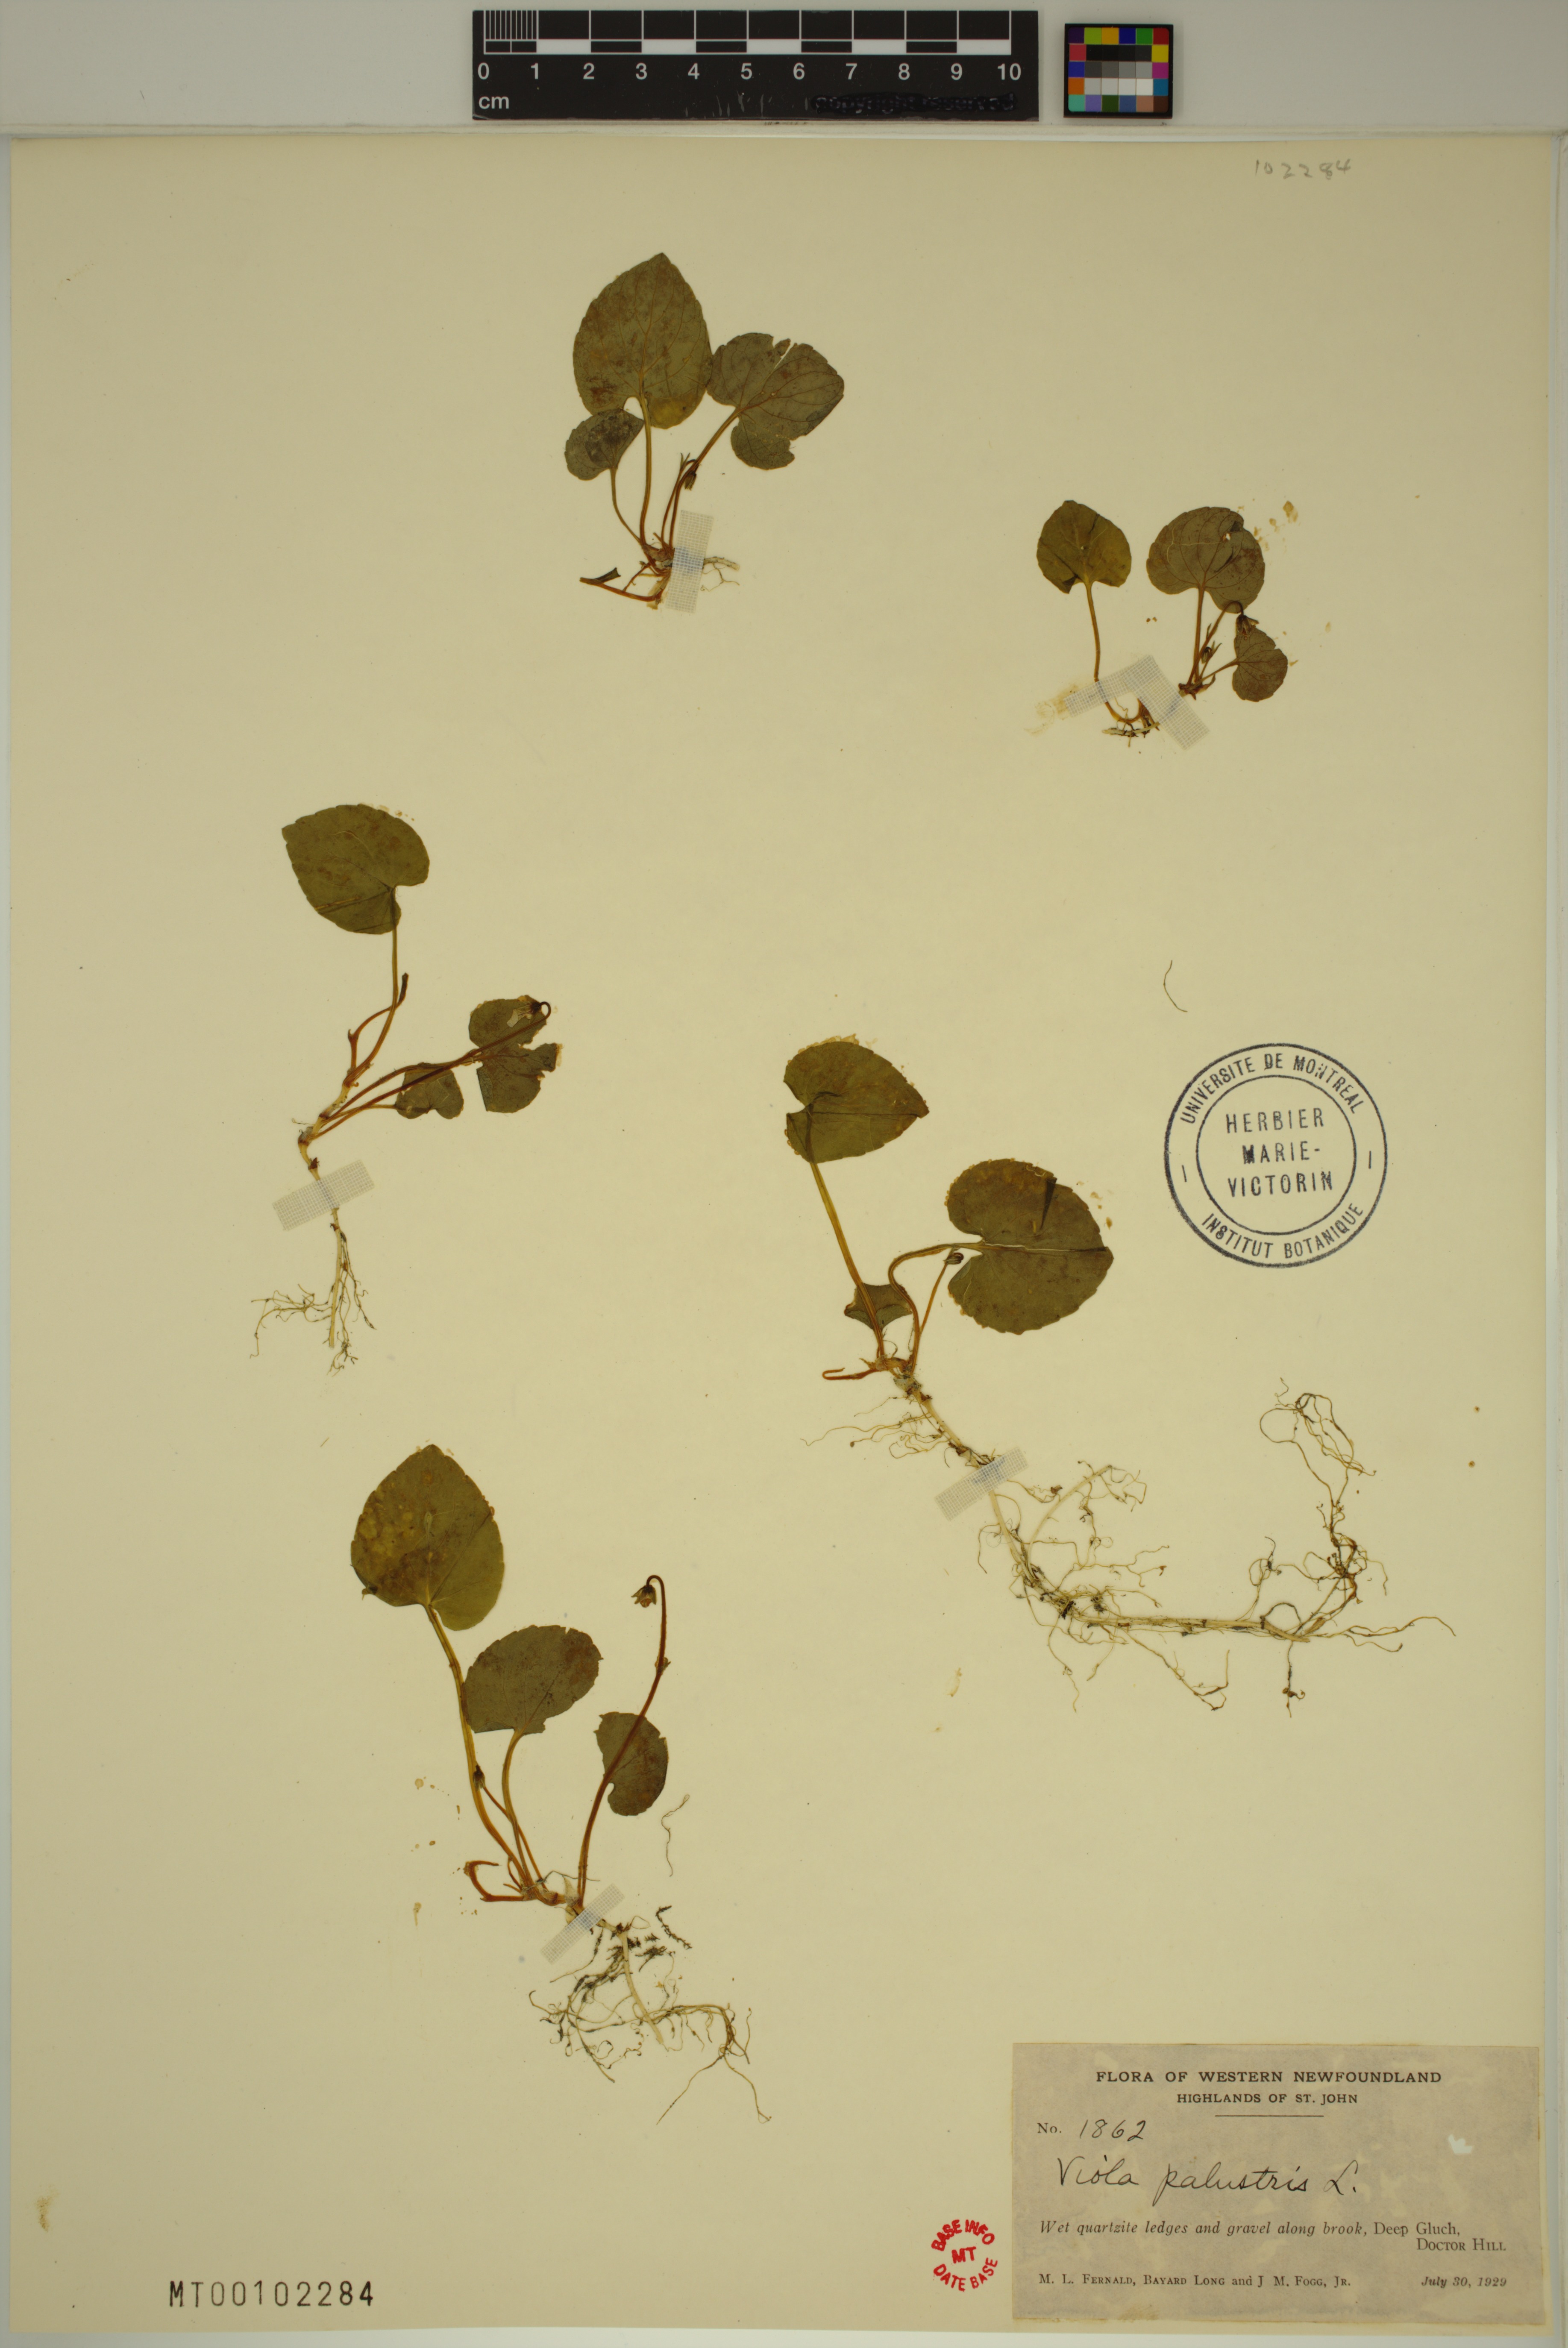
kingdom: Plantae
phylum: Tracheophyta
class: Magnoliopsida
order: Malpighiales
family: Violaceae
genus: Viola
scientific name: Viola palustris
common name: Marsh violet
